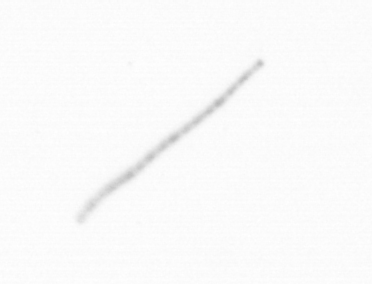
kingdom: Chromista
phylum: Ochrophyta
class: Bacillariophyceae
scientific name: Bacillariophyceae
